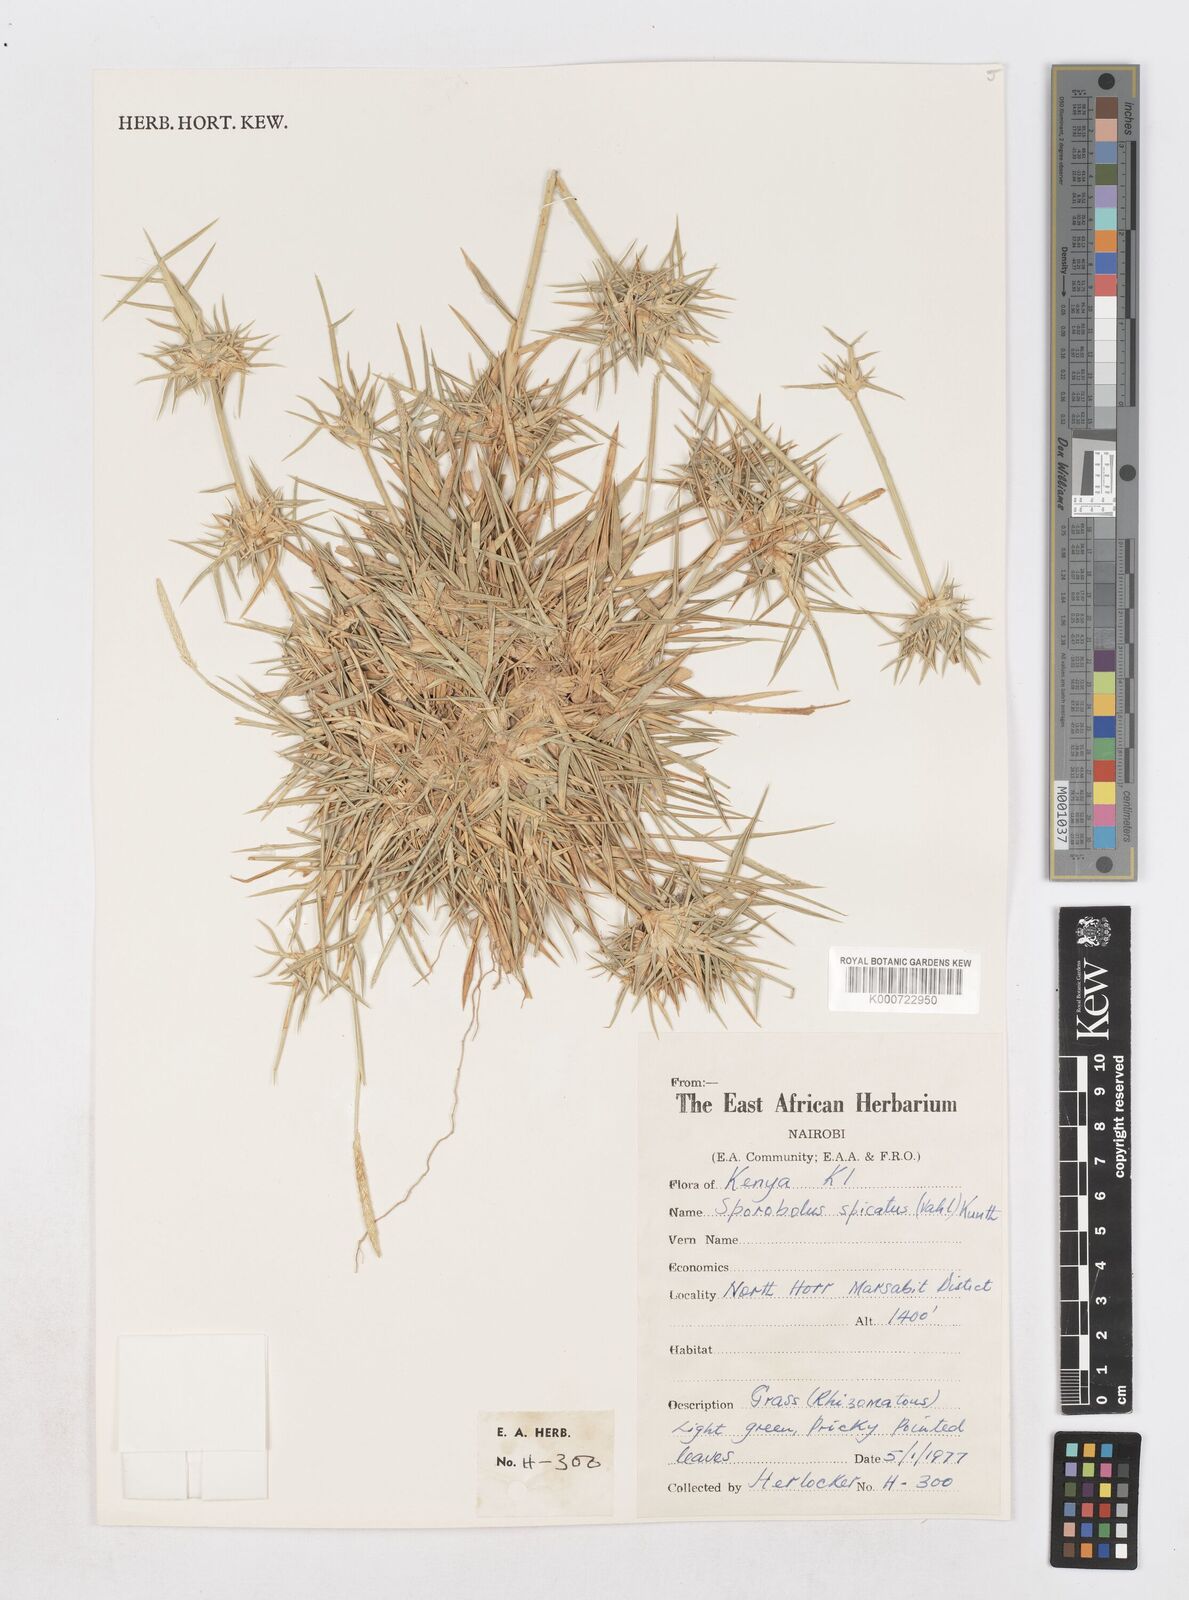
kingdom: Plantae
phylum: Tracheophyta
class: Liliopsida
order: Poales
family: Poaceae
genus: Sporobolus
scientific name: Sporobolus spicatus
